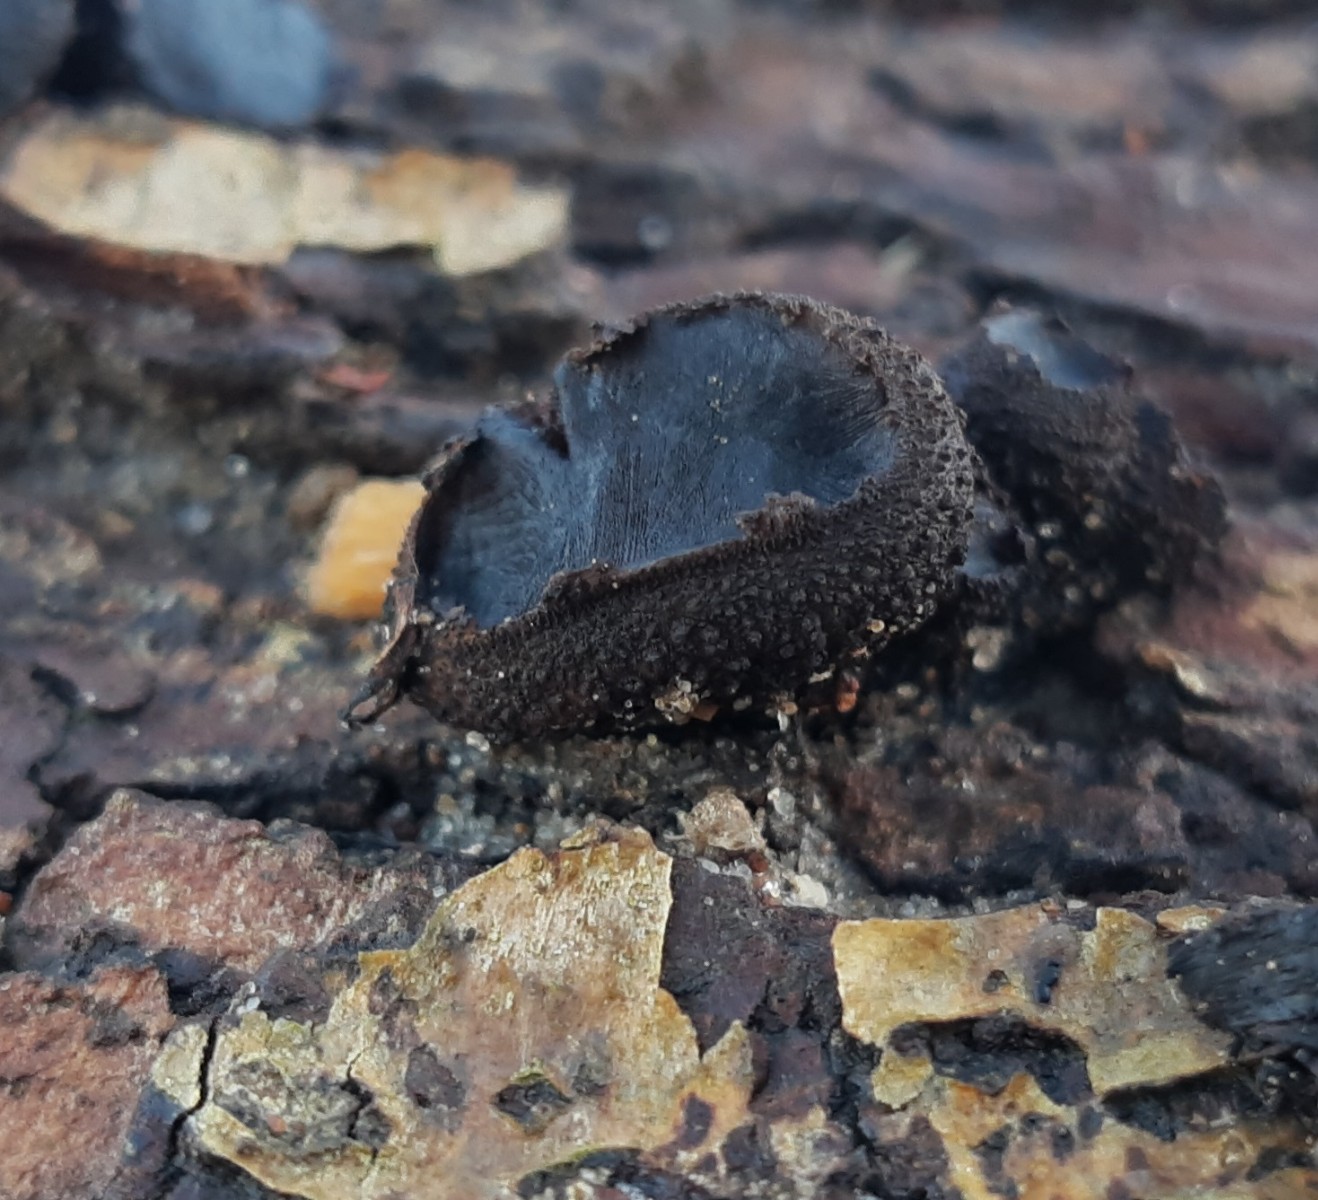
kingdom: Fungi
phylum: Ascomycota
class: Leotiomycetes
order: Phacidiales
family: Phacidiaceae
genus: Bulgaria
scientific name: Bulgaria inquinans
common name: afsmittende topsvamp
